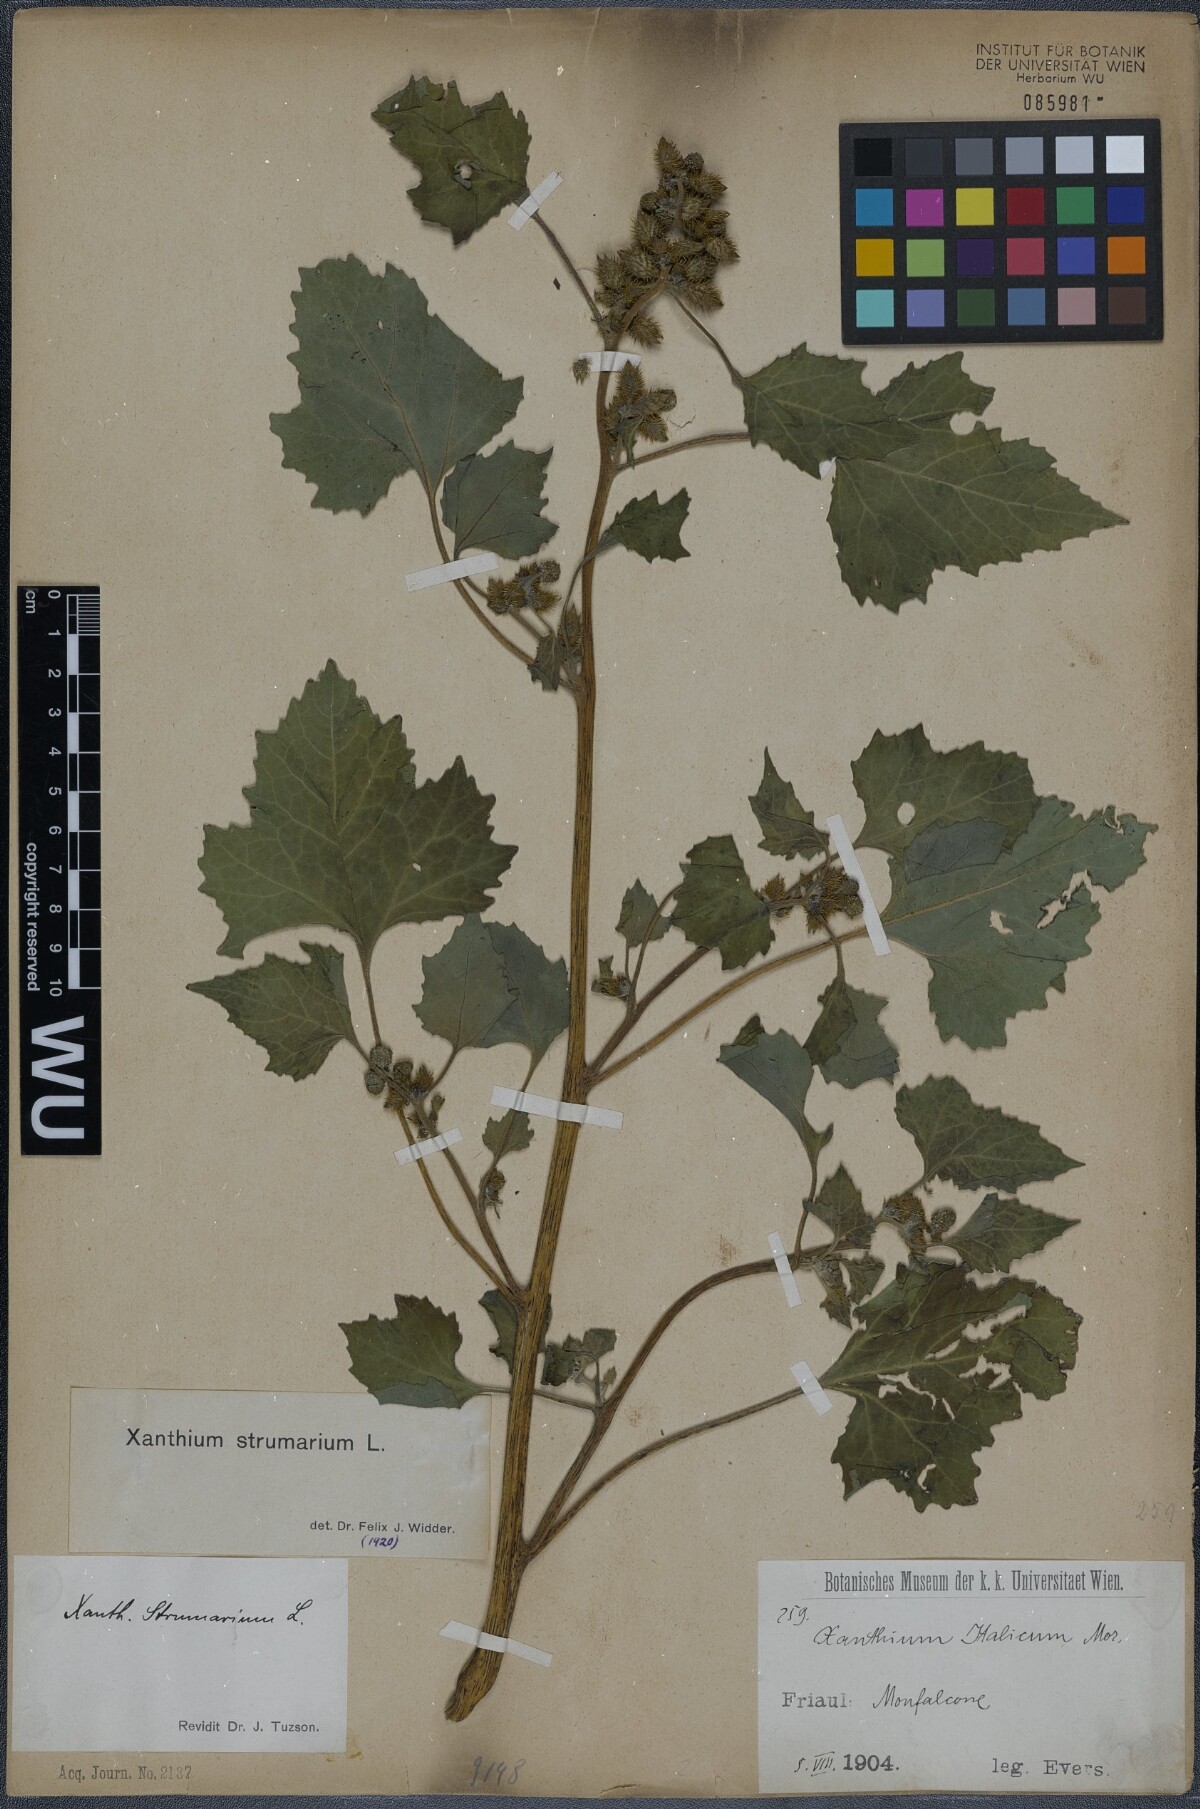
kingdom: Plantae
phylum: Tracheophyta
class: Magnoliopsida
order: Asterales
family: Asteraceae
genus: Xanthium
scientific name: Xanthium strumarium
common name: Rough cocklebur
